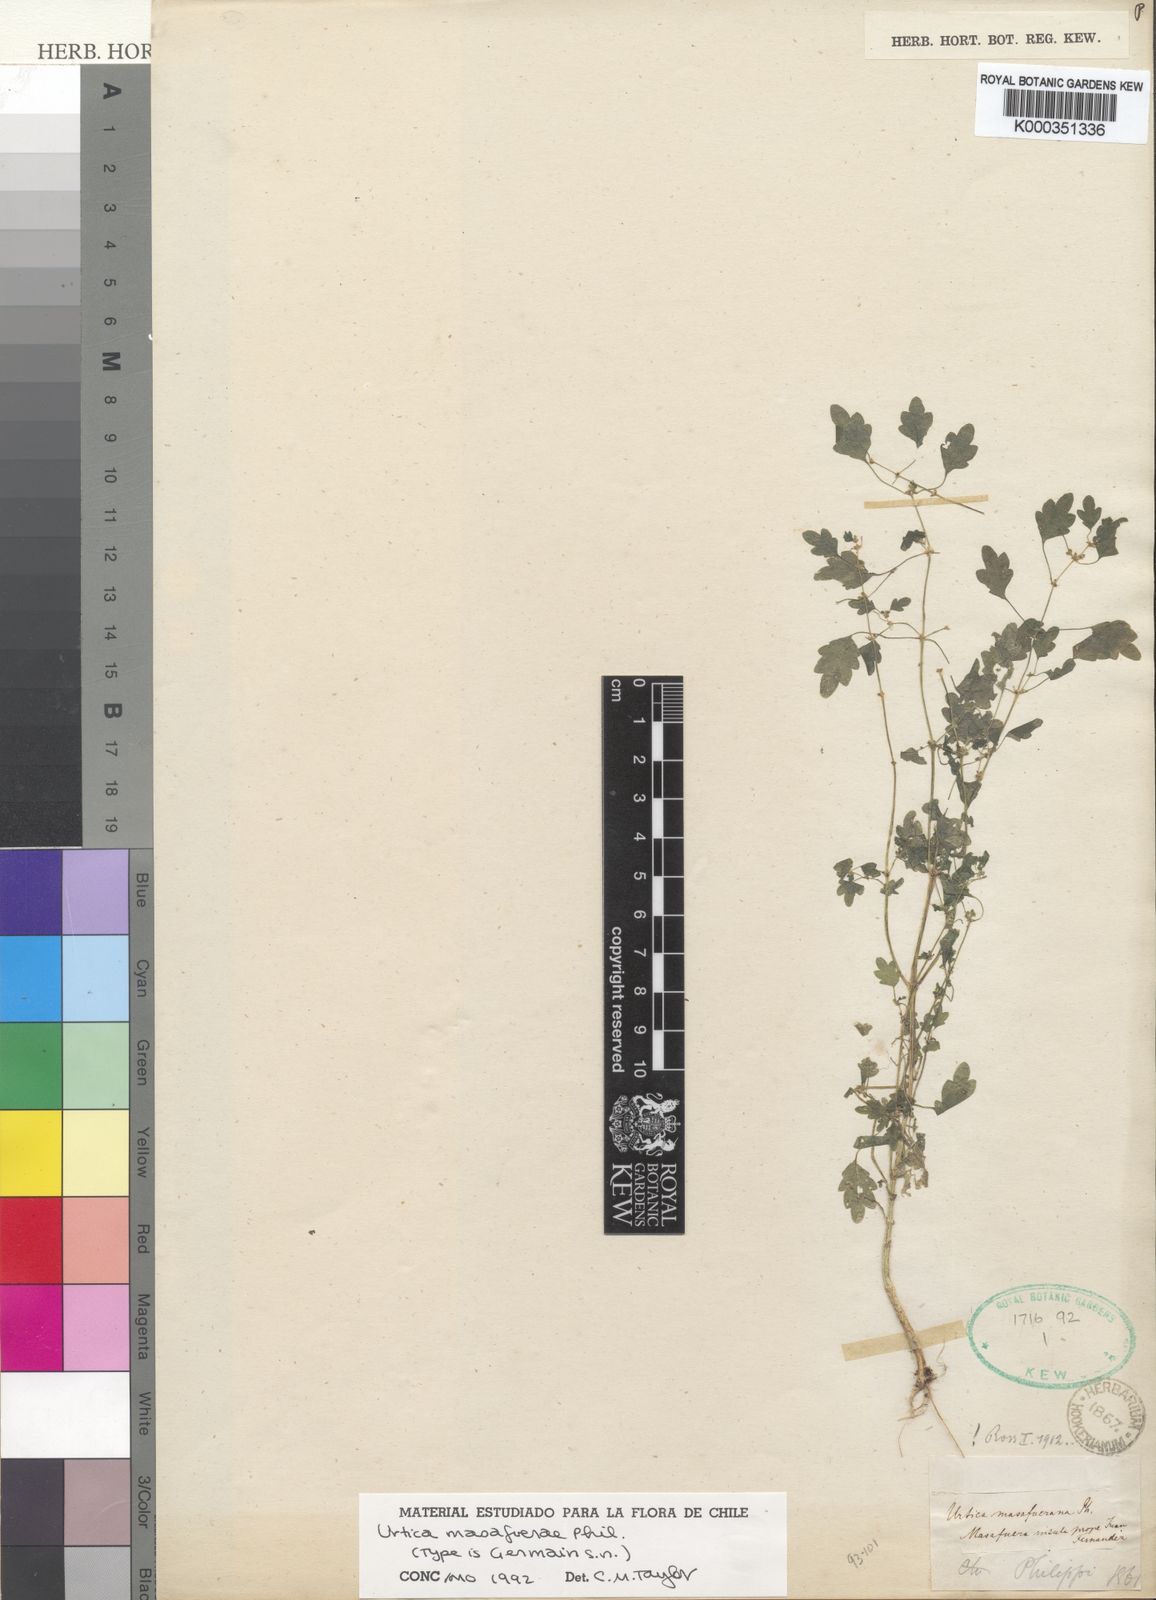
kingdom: Plantae
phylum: Tracheophyta
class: Magnoliopsida
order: Rosales
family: Urticaceae
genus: Urtica
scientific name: Urtica masafuerae
